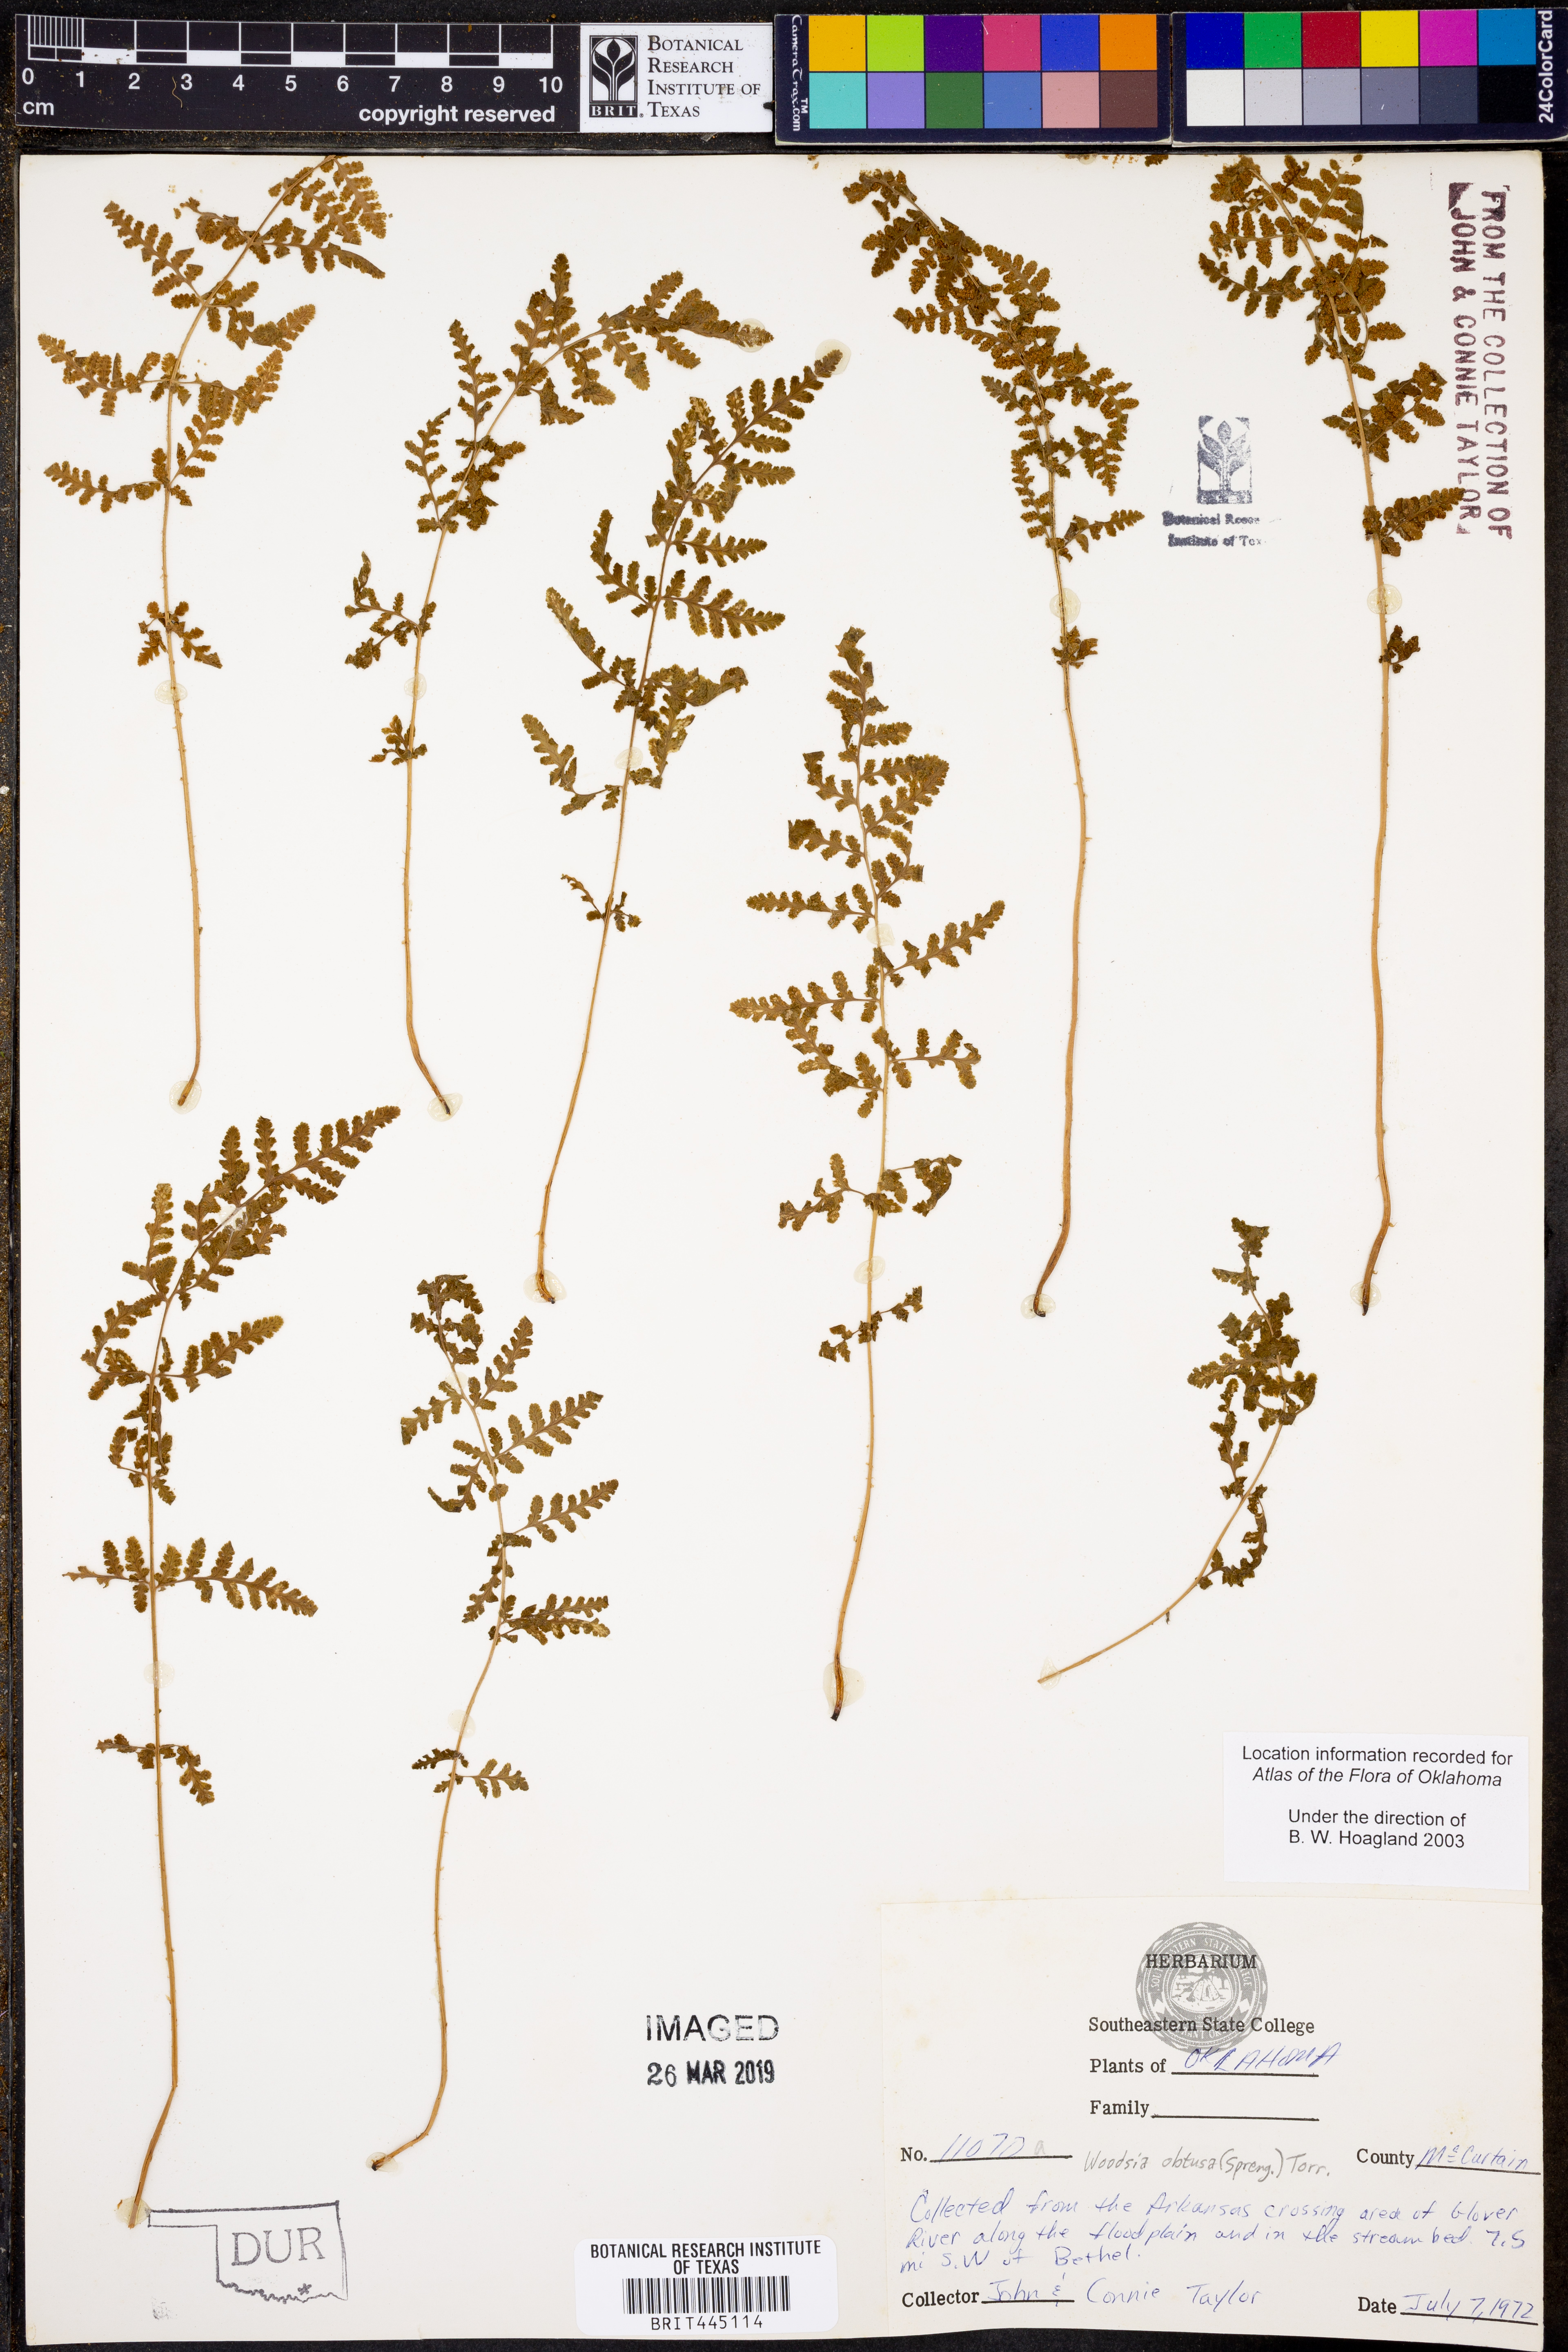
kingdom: Plantae
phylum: Tracheophyta
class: Polypodiopsida
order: Polypodiales
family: Woodsiaceae
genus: Physematium
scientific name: Physematium obtusum
